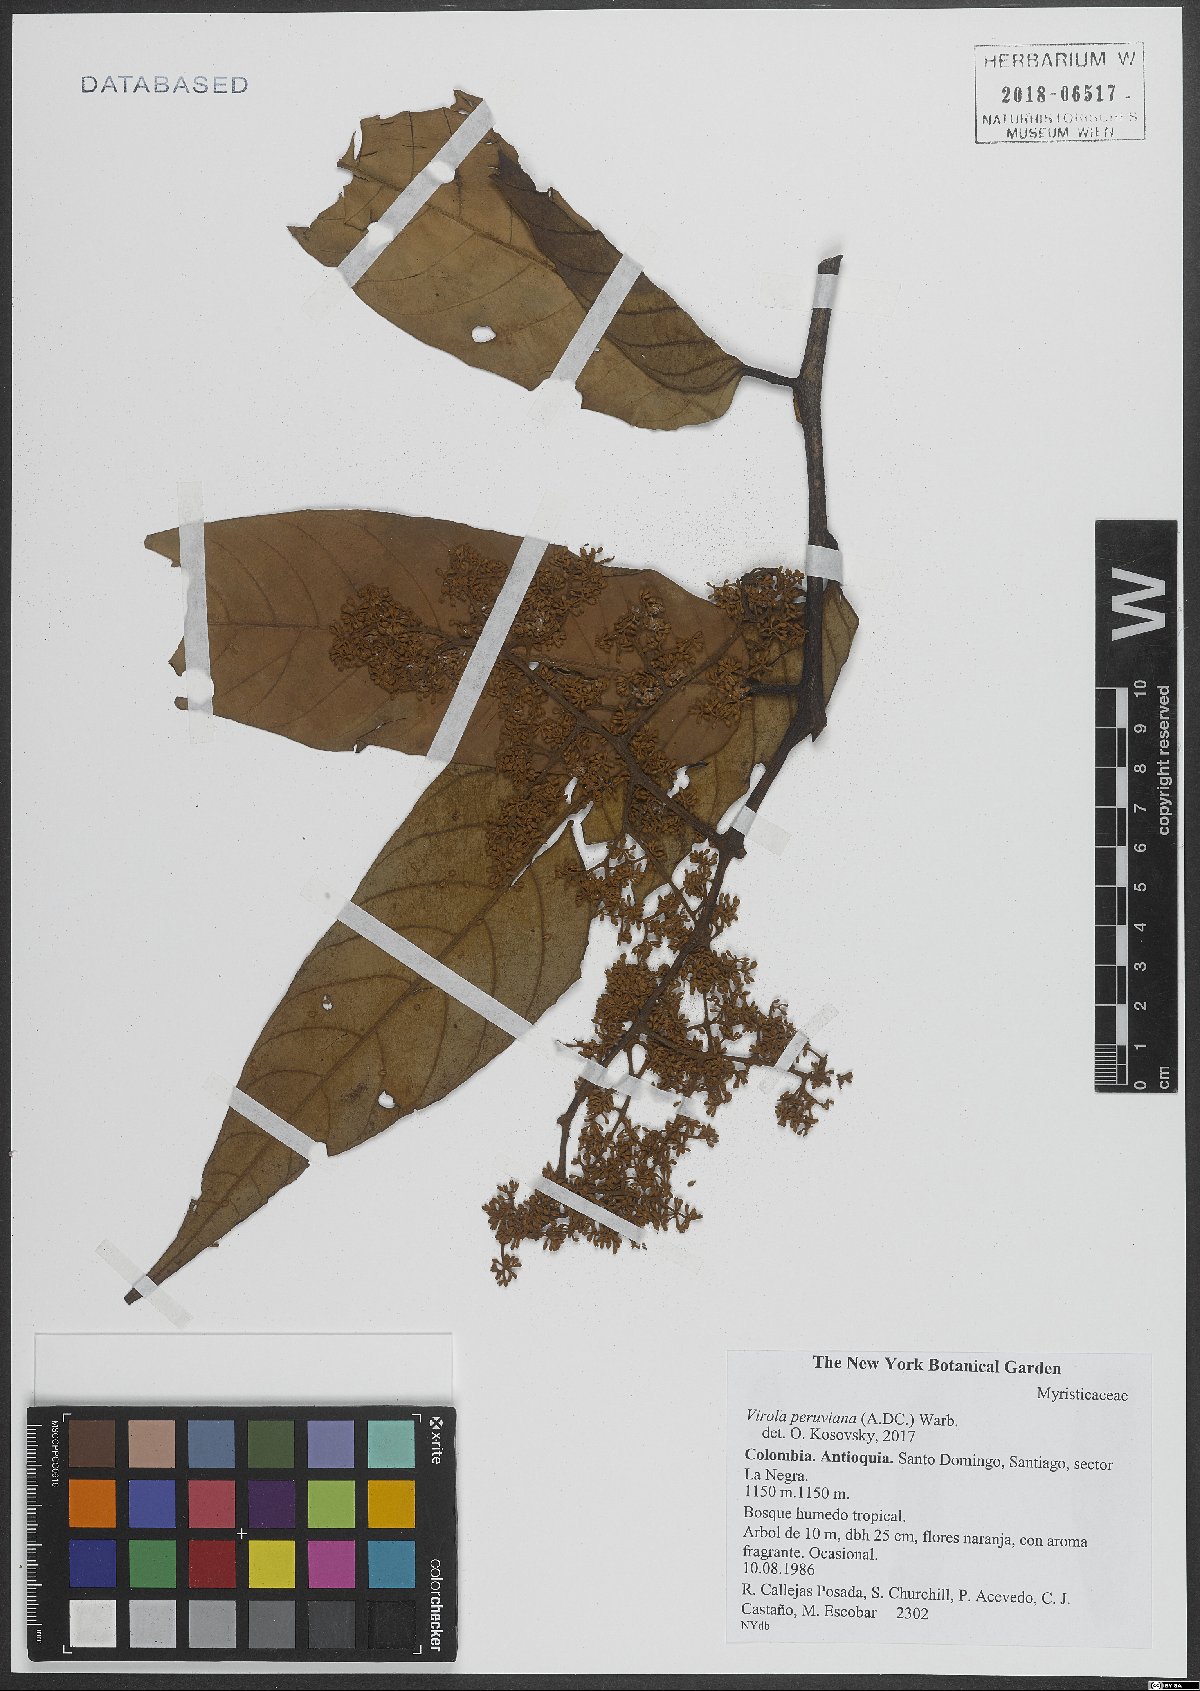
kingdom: Plantae
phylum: Tracheophyta
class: Magnoliopsida
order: Magnoliales
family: Myristicaceae
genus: Virola
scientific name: Virola peruviana
